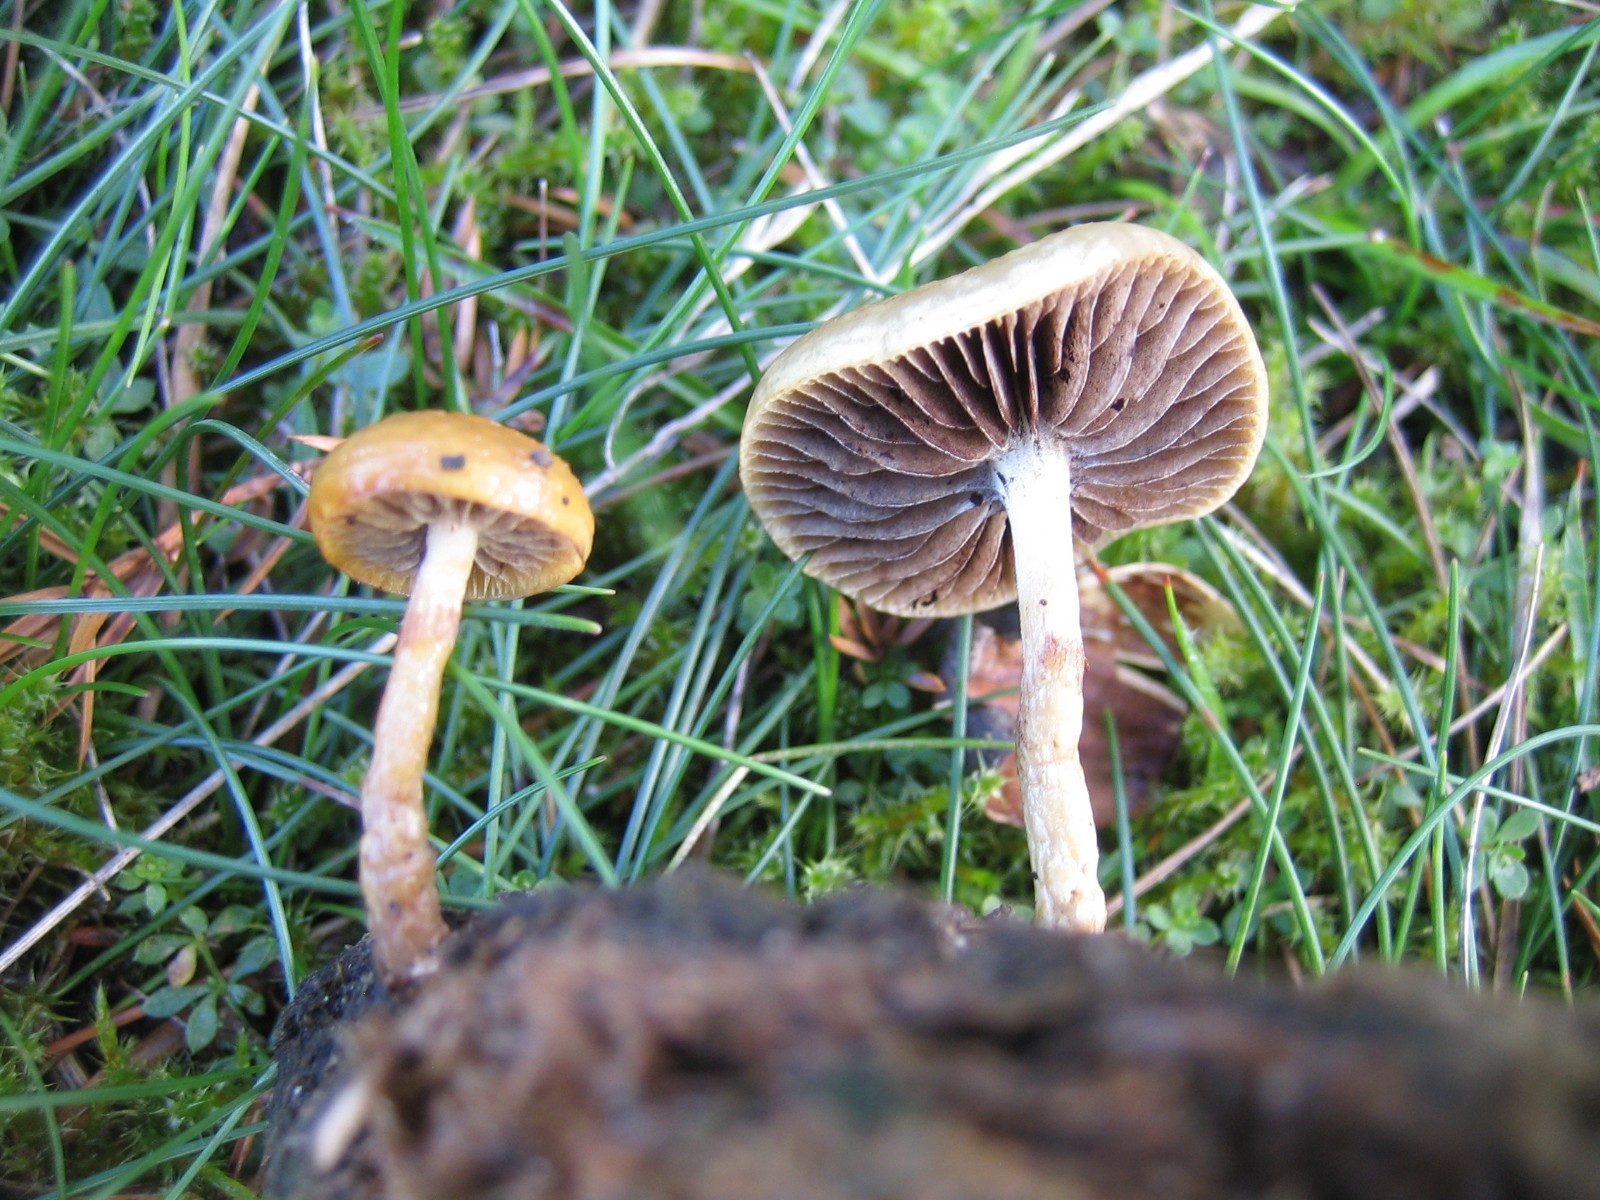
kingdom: Fungi
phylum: Basidiomycota
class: Agaricomycetes
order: Agaricales
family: Strophariaceae
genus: Protostropharia
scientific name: Protostropharia semiglobata
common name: halvkugleformet bredblad
